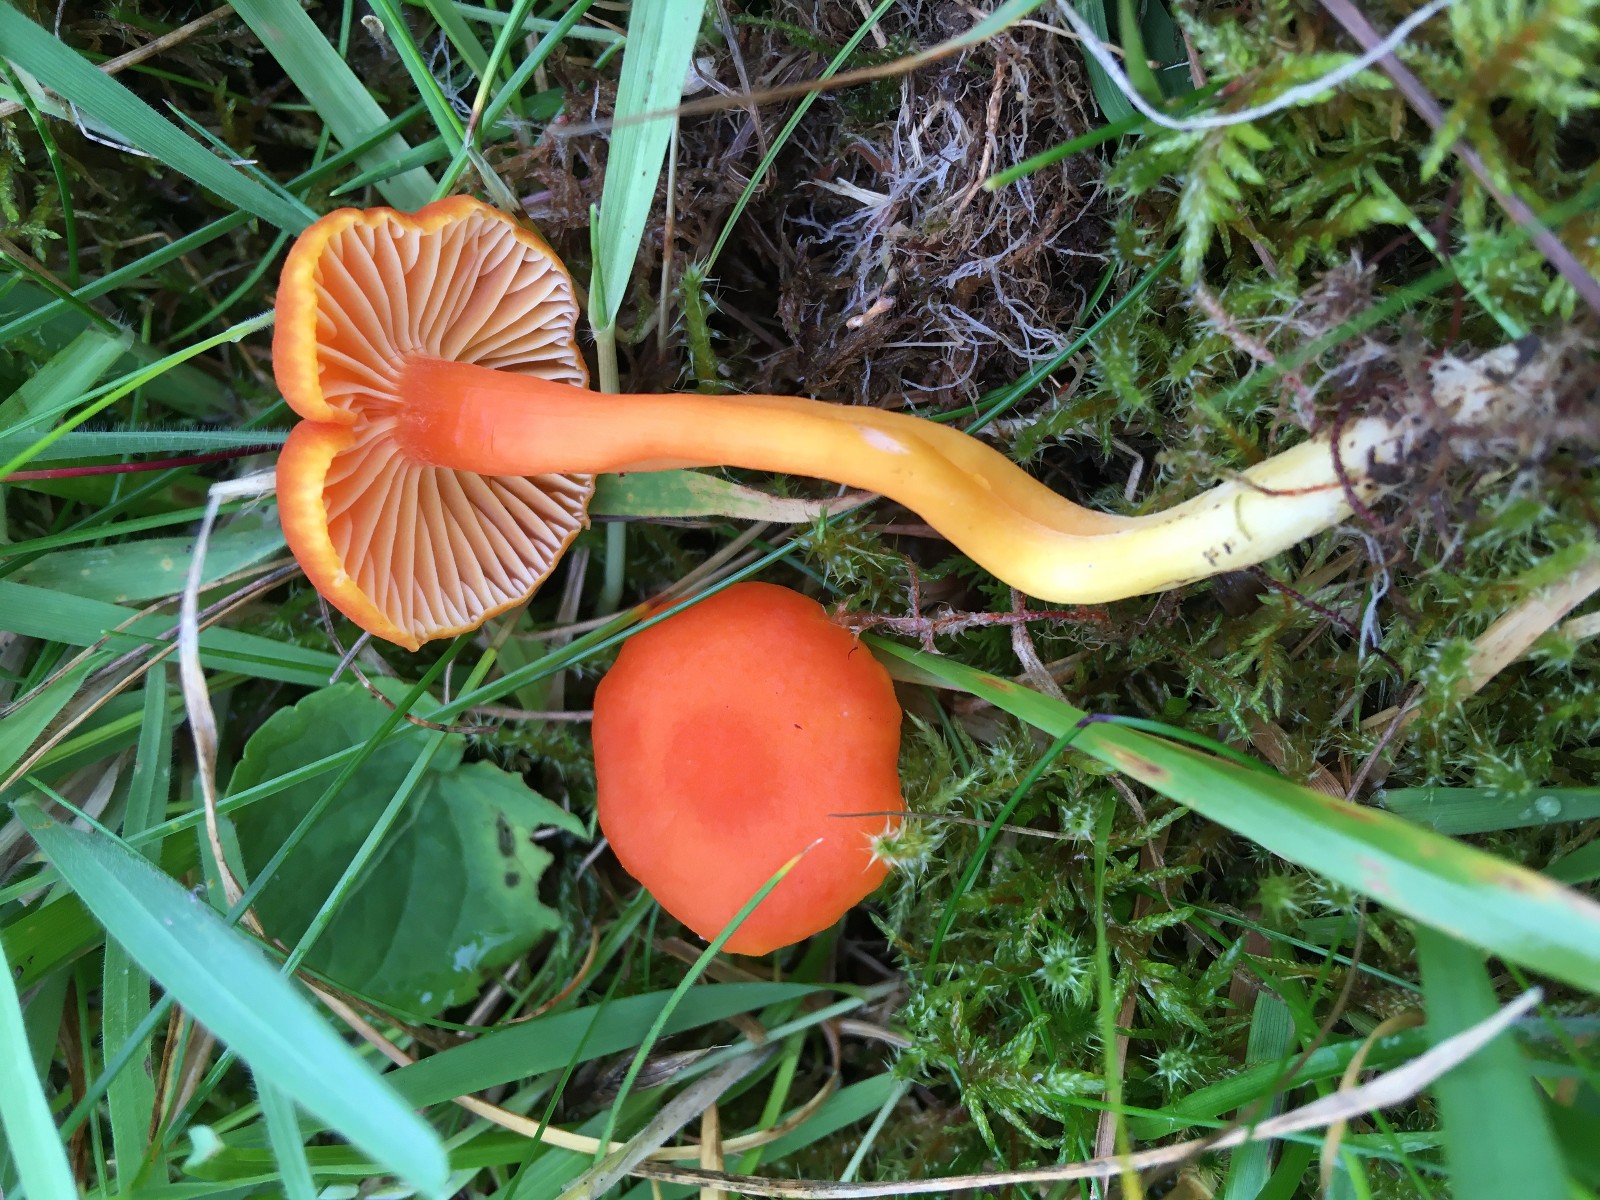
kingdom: Fungi
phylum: Basidiomycota
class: Agaricomycetes
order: Agaricales
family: Hygrophoraceae
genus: Hygrocybe
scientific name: Hygrocybe reidii
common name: honning-vokshat
